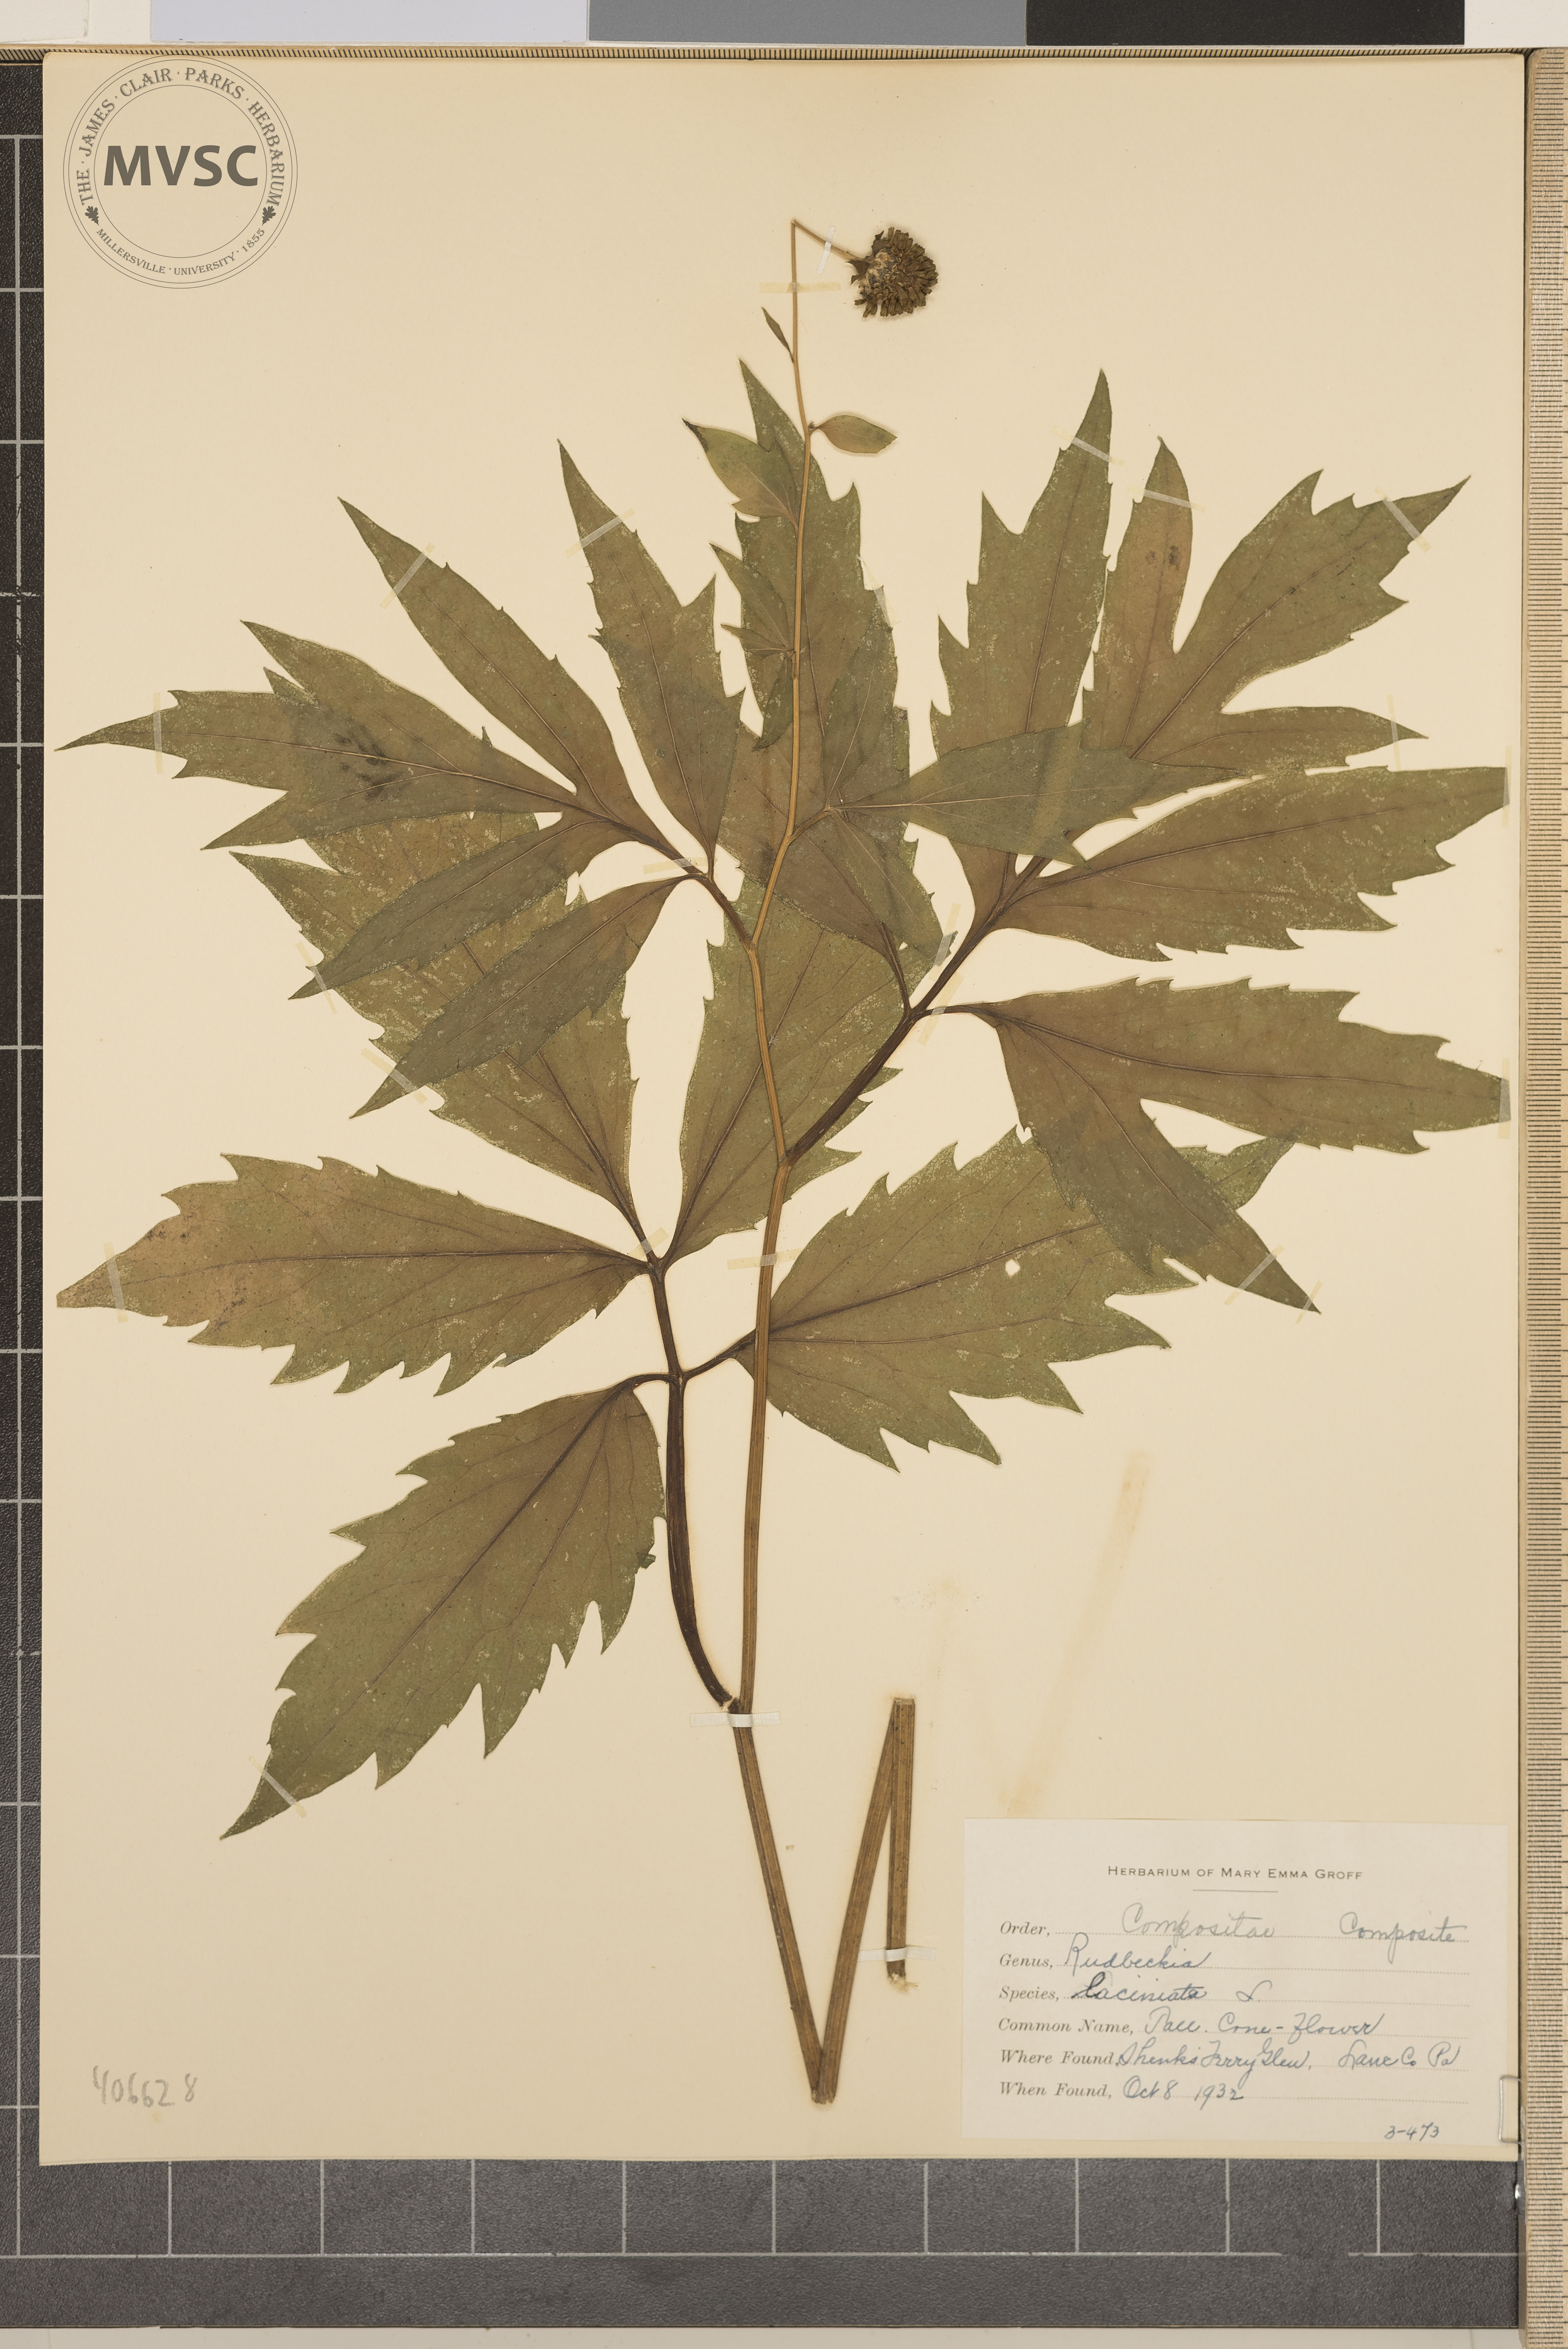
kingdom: Plantae
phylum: Tracheophyta
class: Magnoliopsida
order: Asterales
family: Asteraceae
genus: Rudbeckia
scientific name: Rudbeckia laciniata
